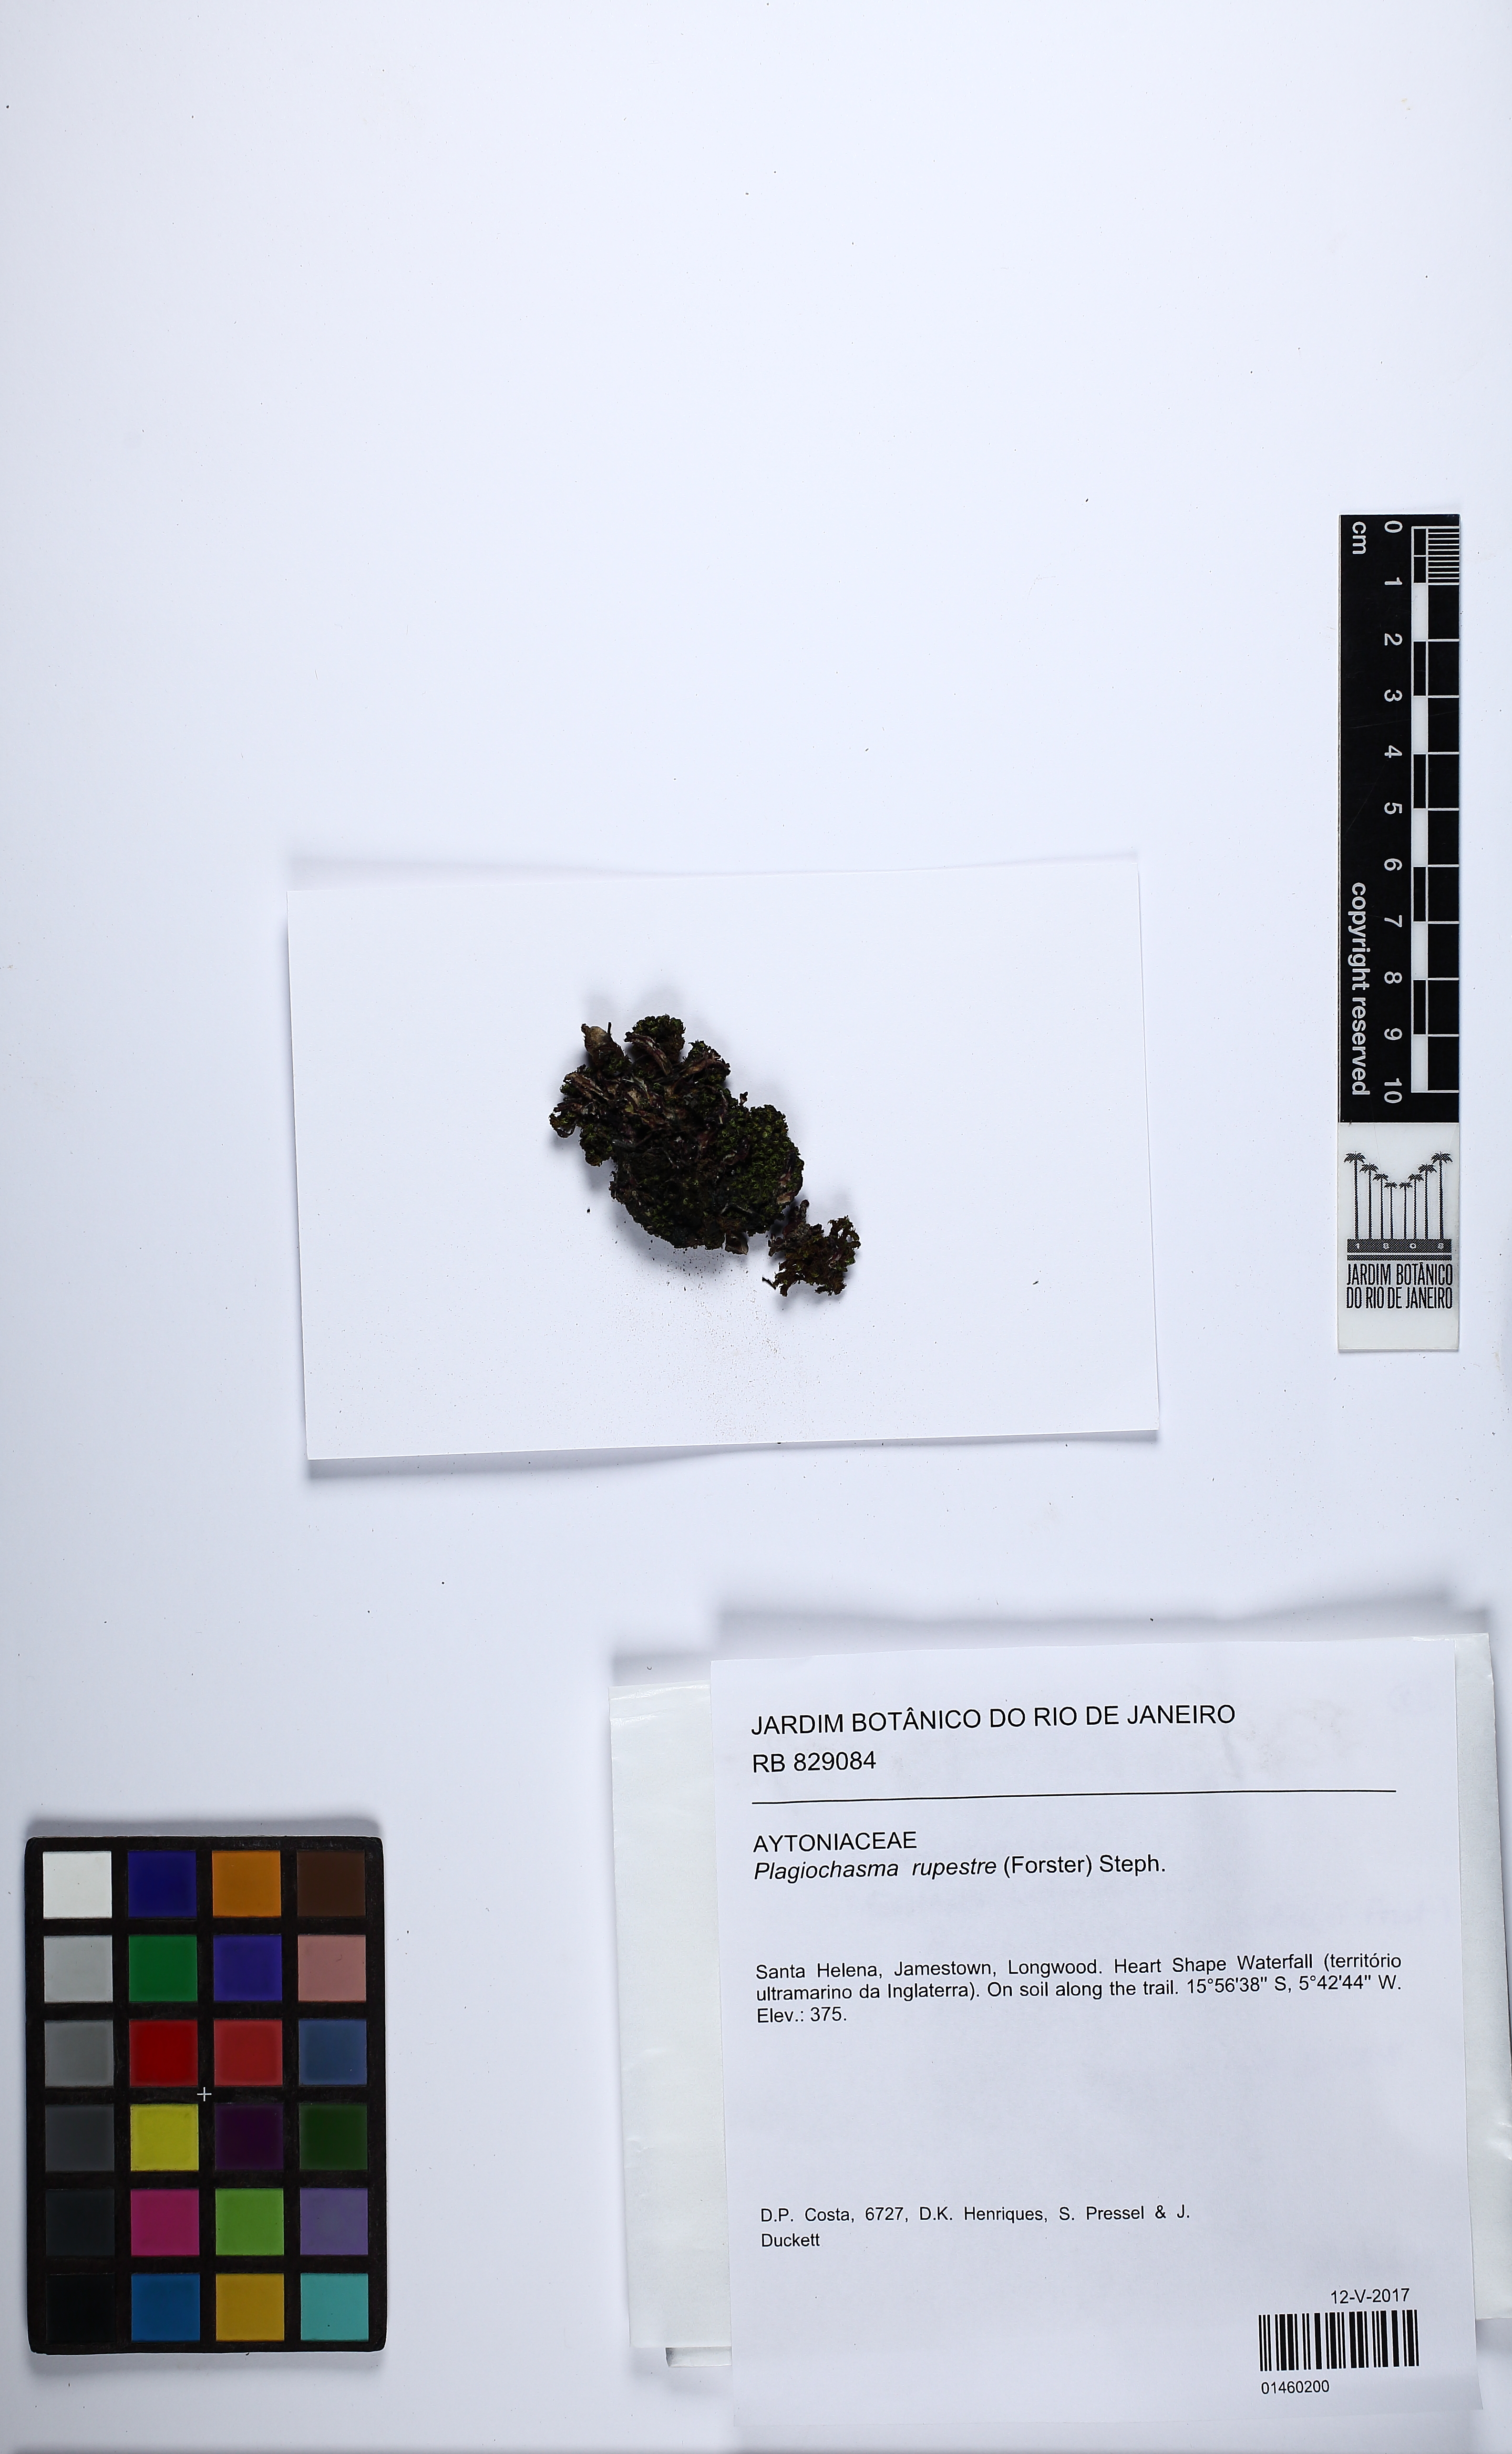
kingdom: Plantae
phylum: Marchantiophyta
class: Marchantiopsida
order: Marchantiales
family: Aytoniaceae
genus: Plagiochasma
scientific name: Plagiochasma rupestre
